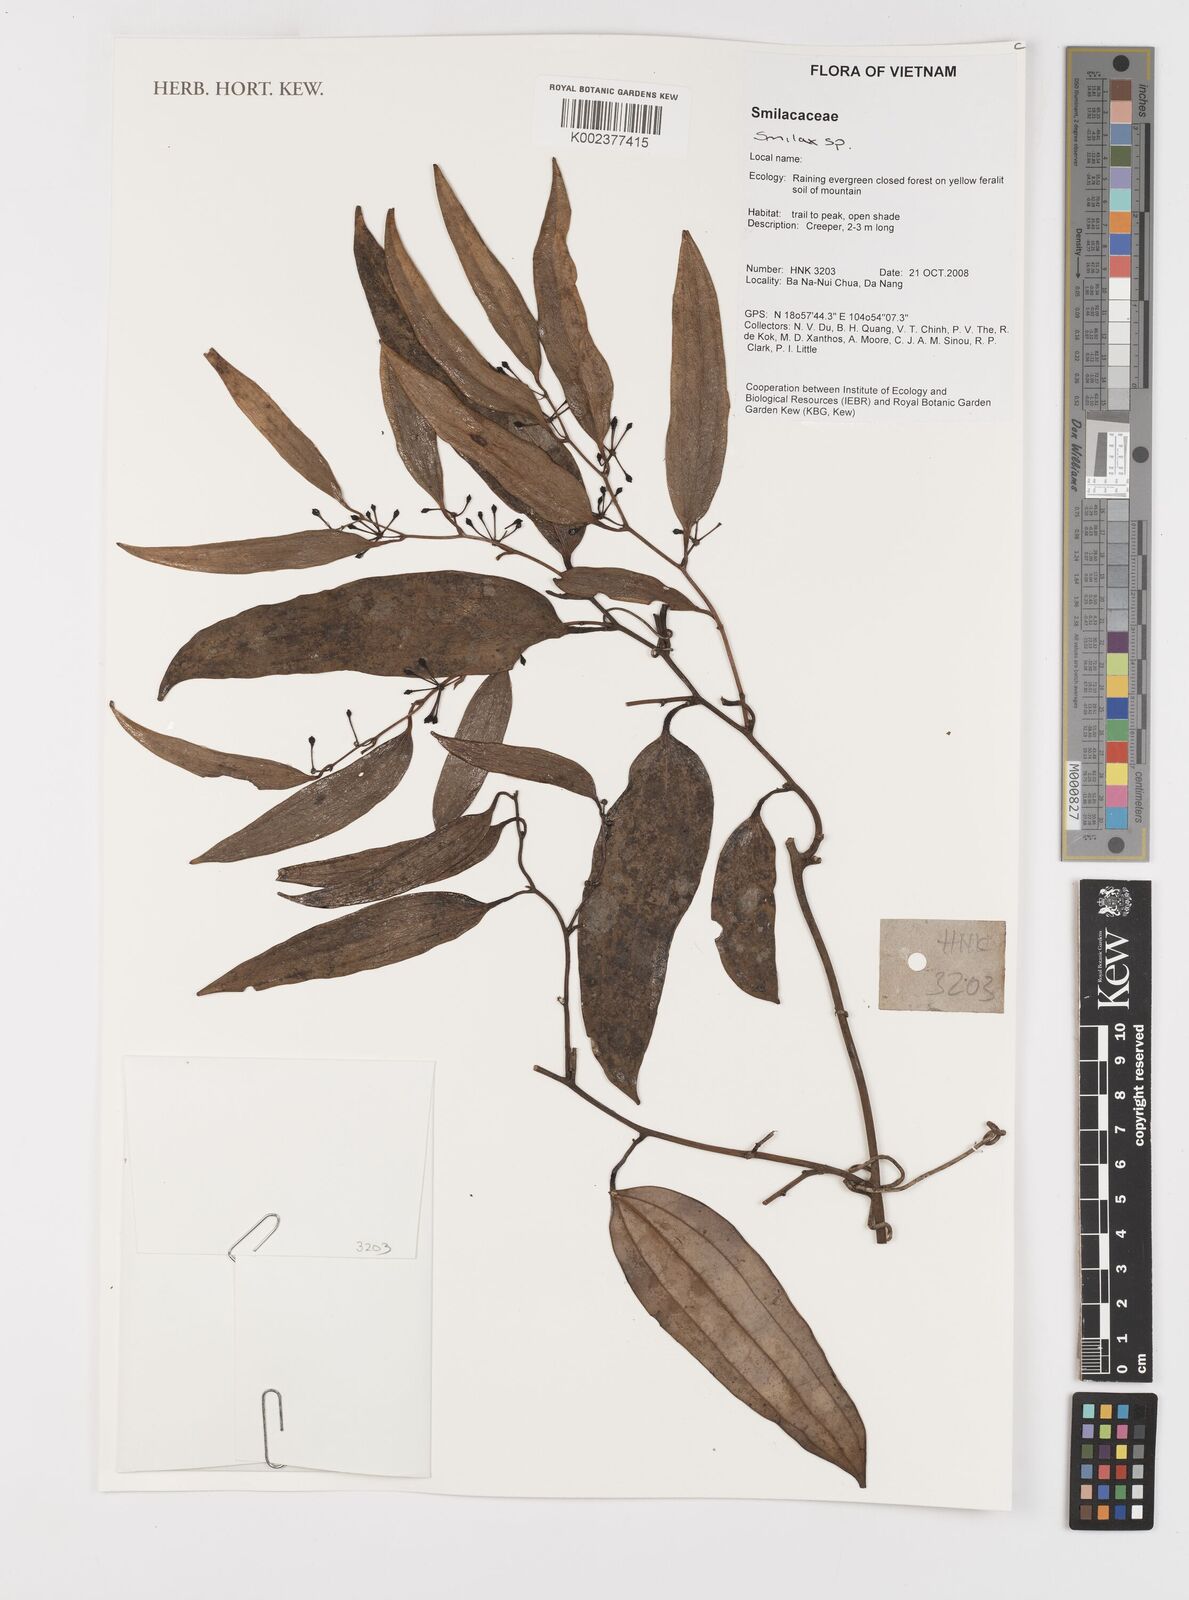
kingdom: Plantae
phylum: Tracheophyta
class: Liliopsida
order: Liliales
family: Smilacaceae
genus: Smilax
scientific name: Smilax
